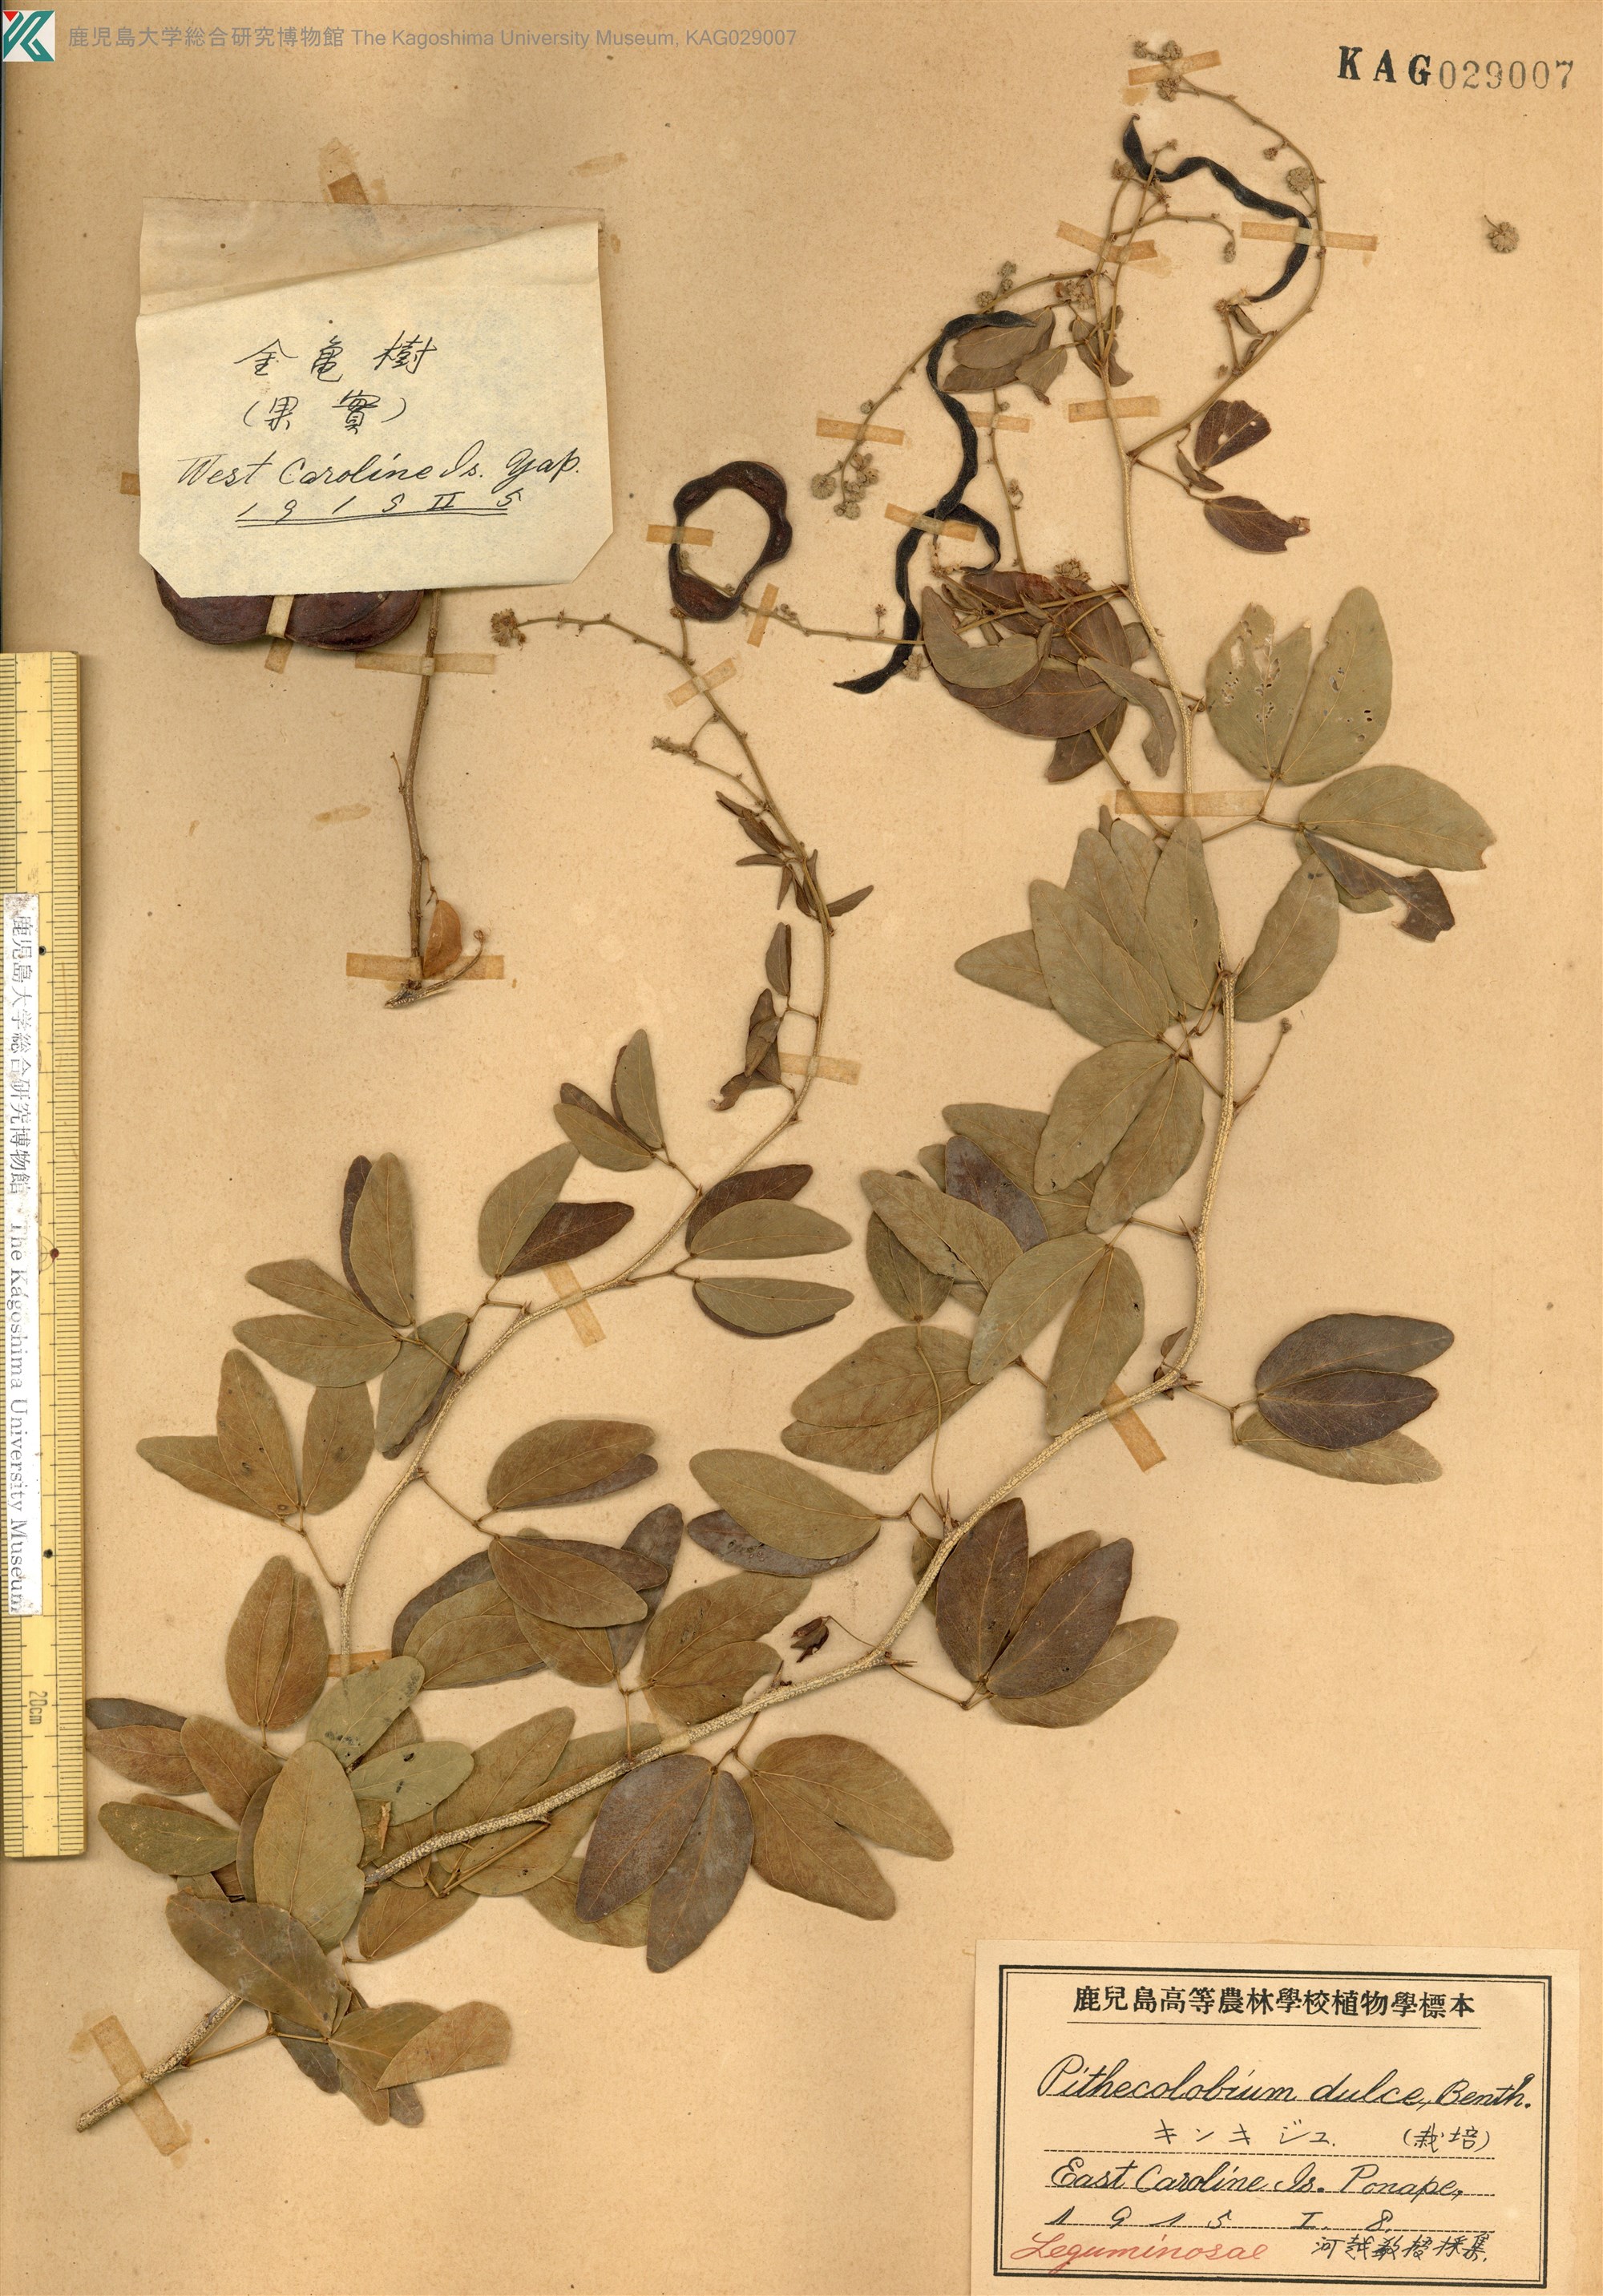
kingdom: Plantae
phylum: Tracheophyta
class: Magnoliopsida
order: Fabales
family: Fabaceae
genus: Pithecellobium
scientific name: Pithecellobium dulce
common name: Monkeypod
